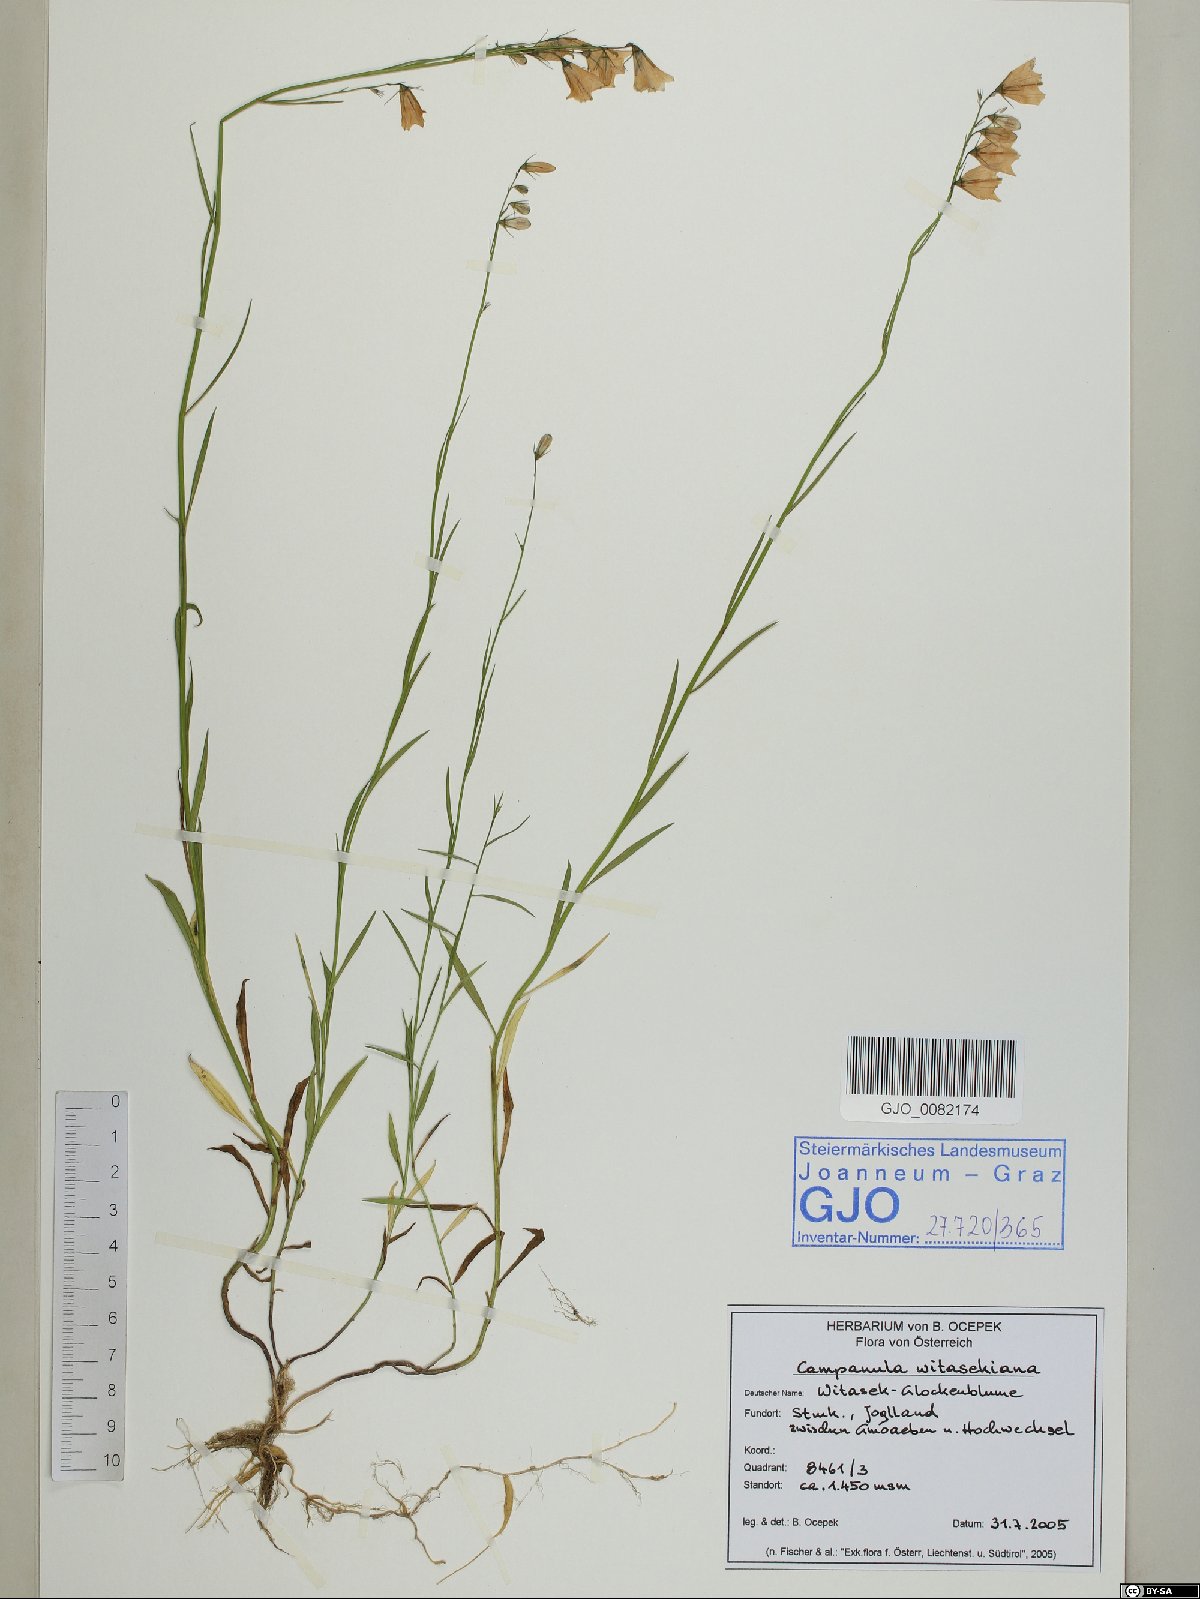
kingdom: Plantae
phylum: Tracheophyta
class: Magnoliopsida
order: Asterales
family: Campanulaceae
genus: Campanula
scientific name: Campanula witasekiana
